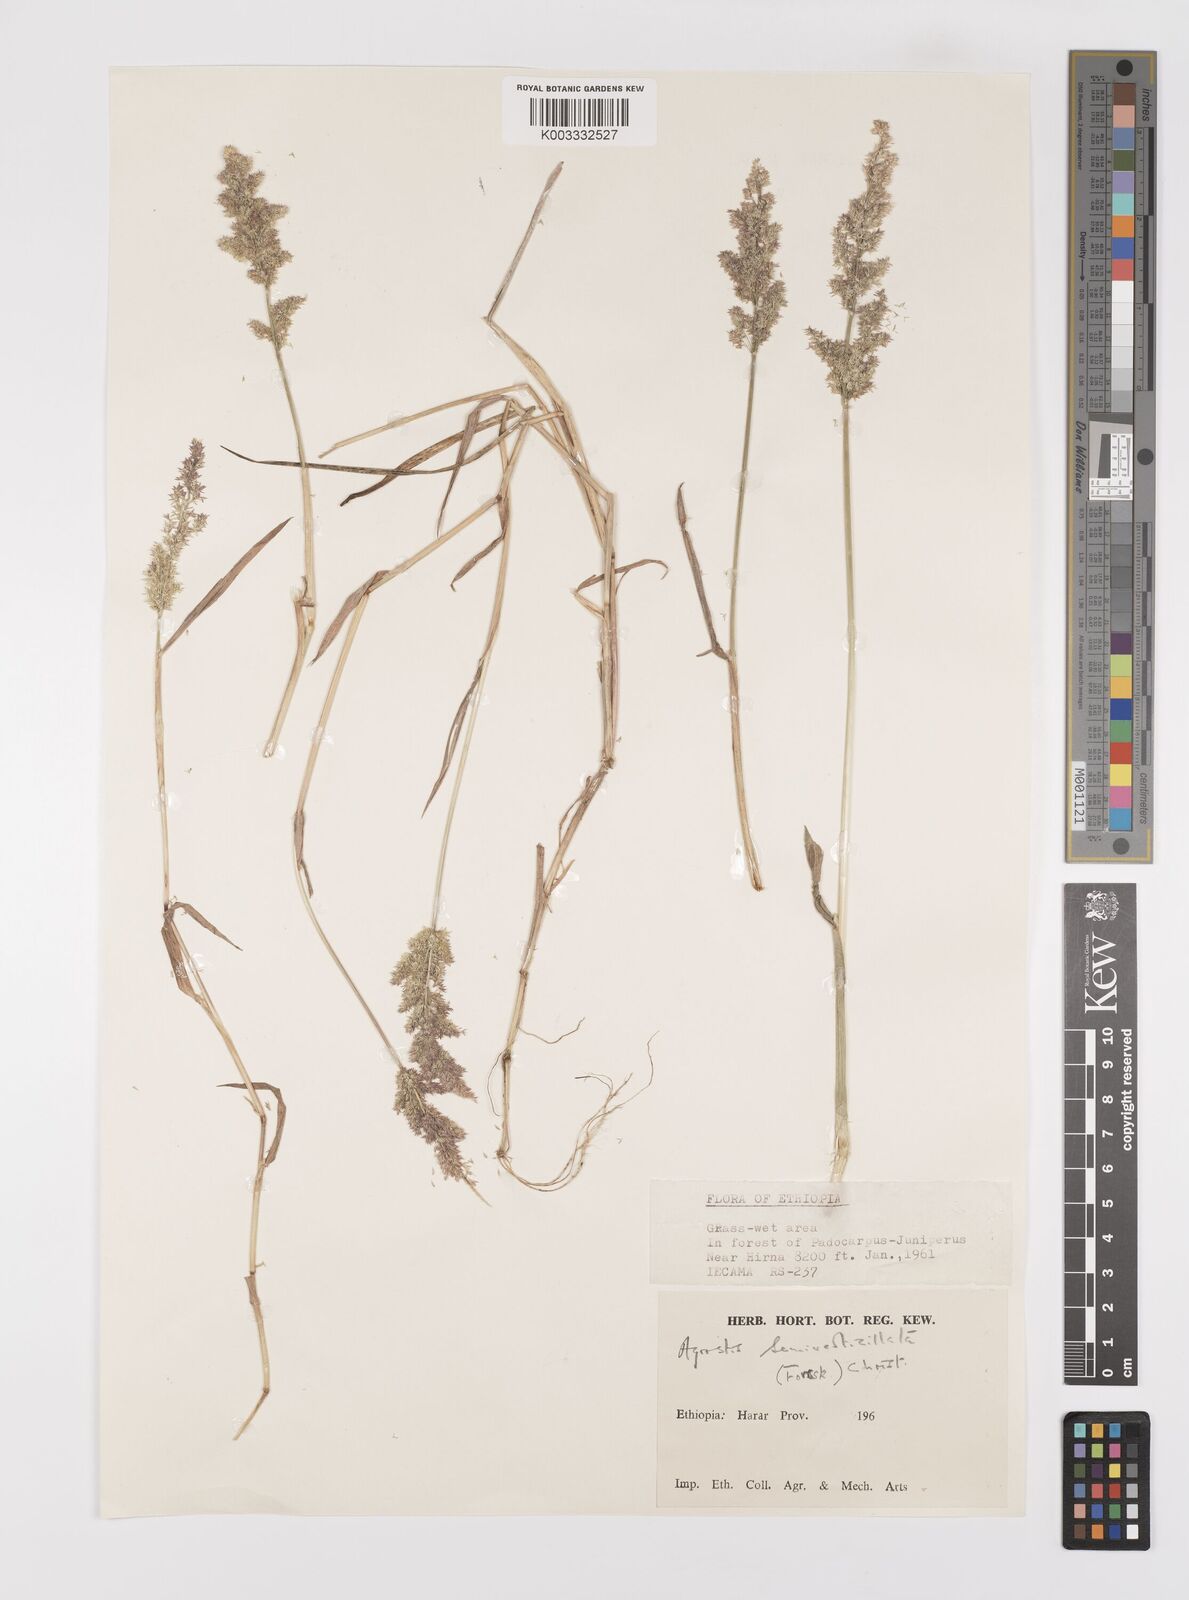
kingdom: Plantae
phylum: Tracheophyta
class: Liliopsida
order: Poales
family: Poaceae
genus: Polypogon
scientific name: Polypogon viridis
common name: Water bent
